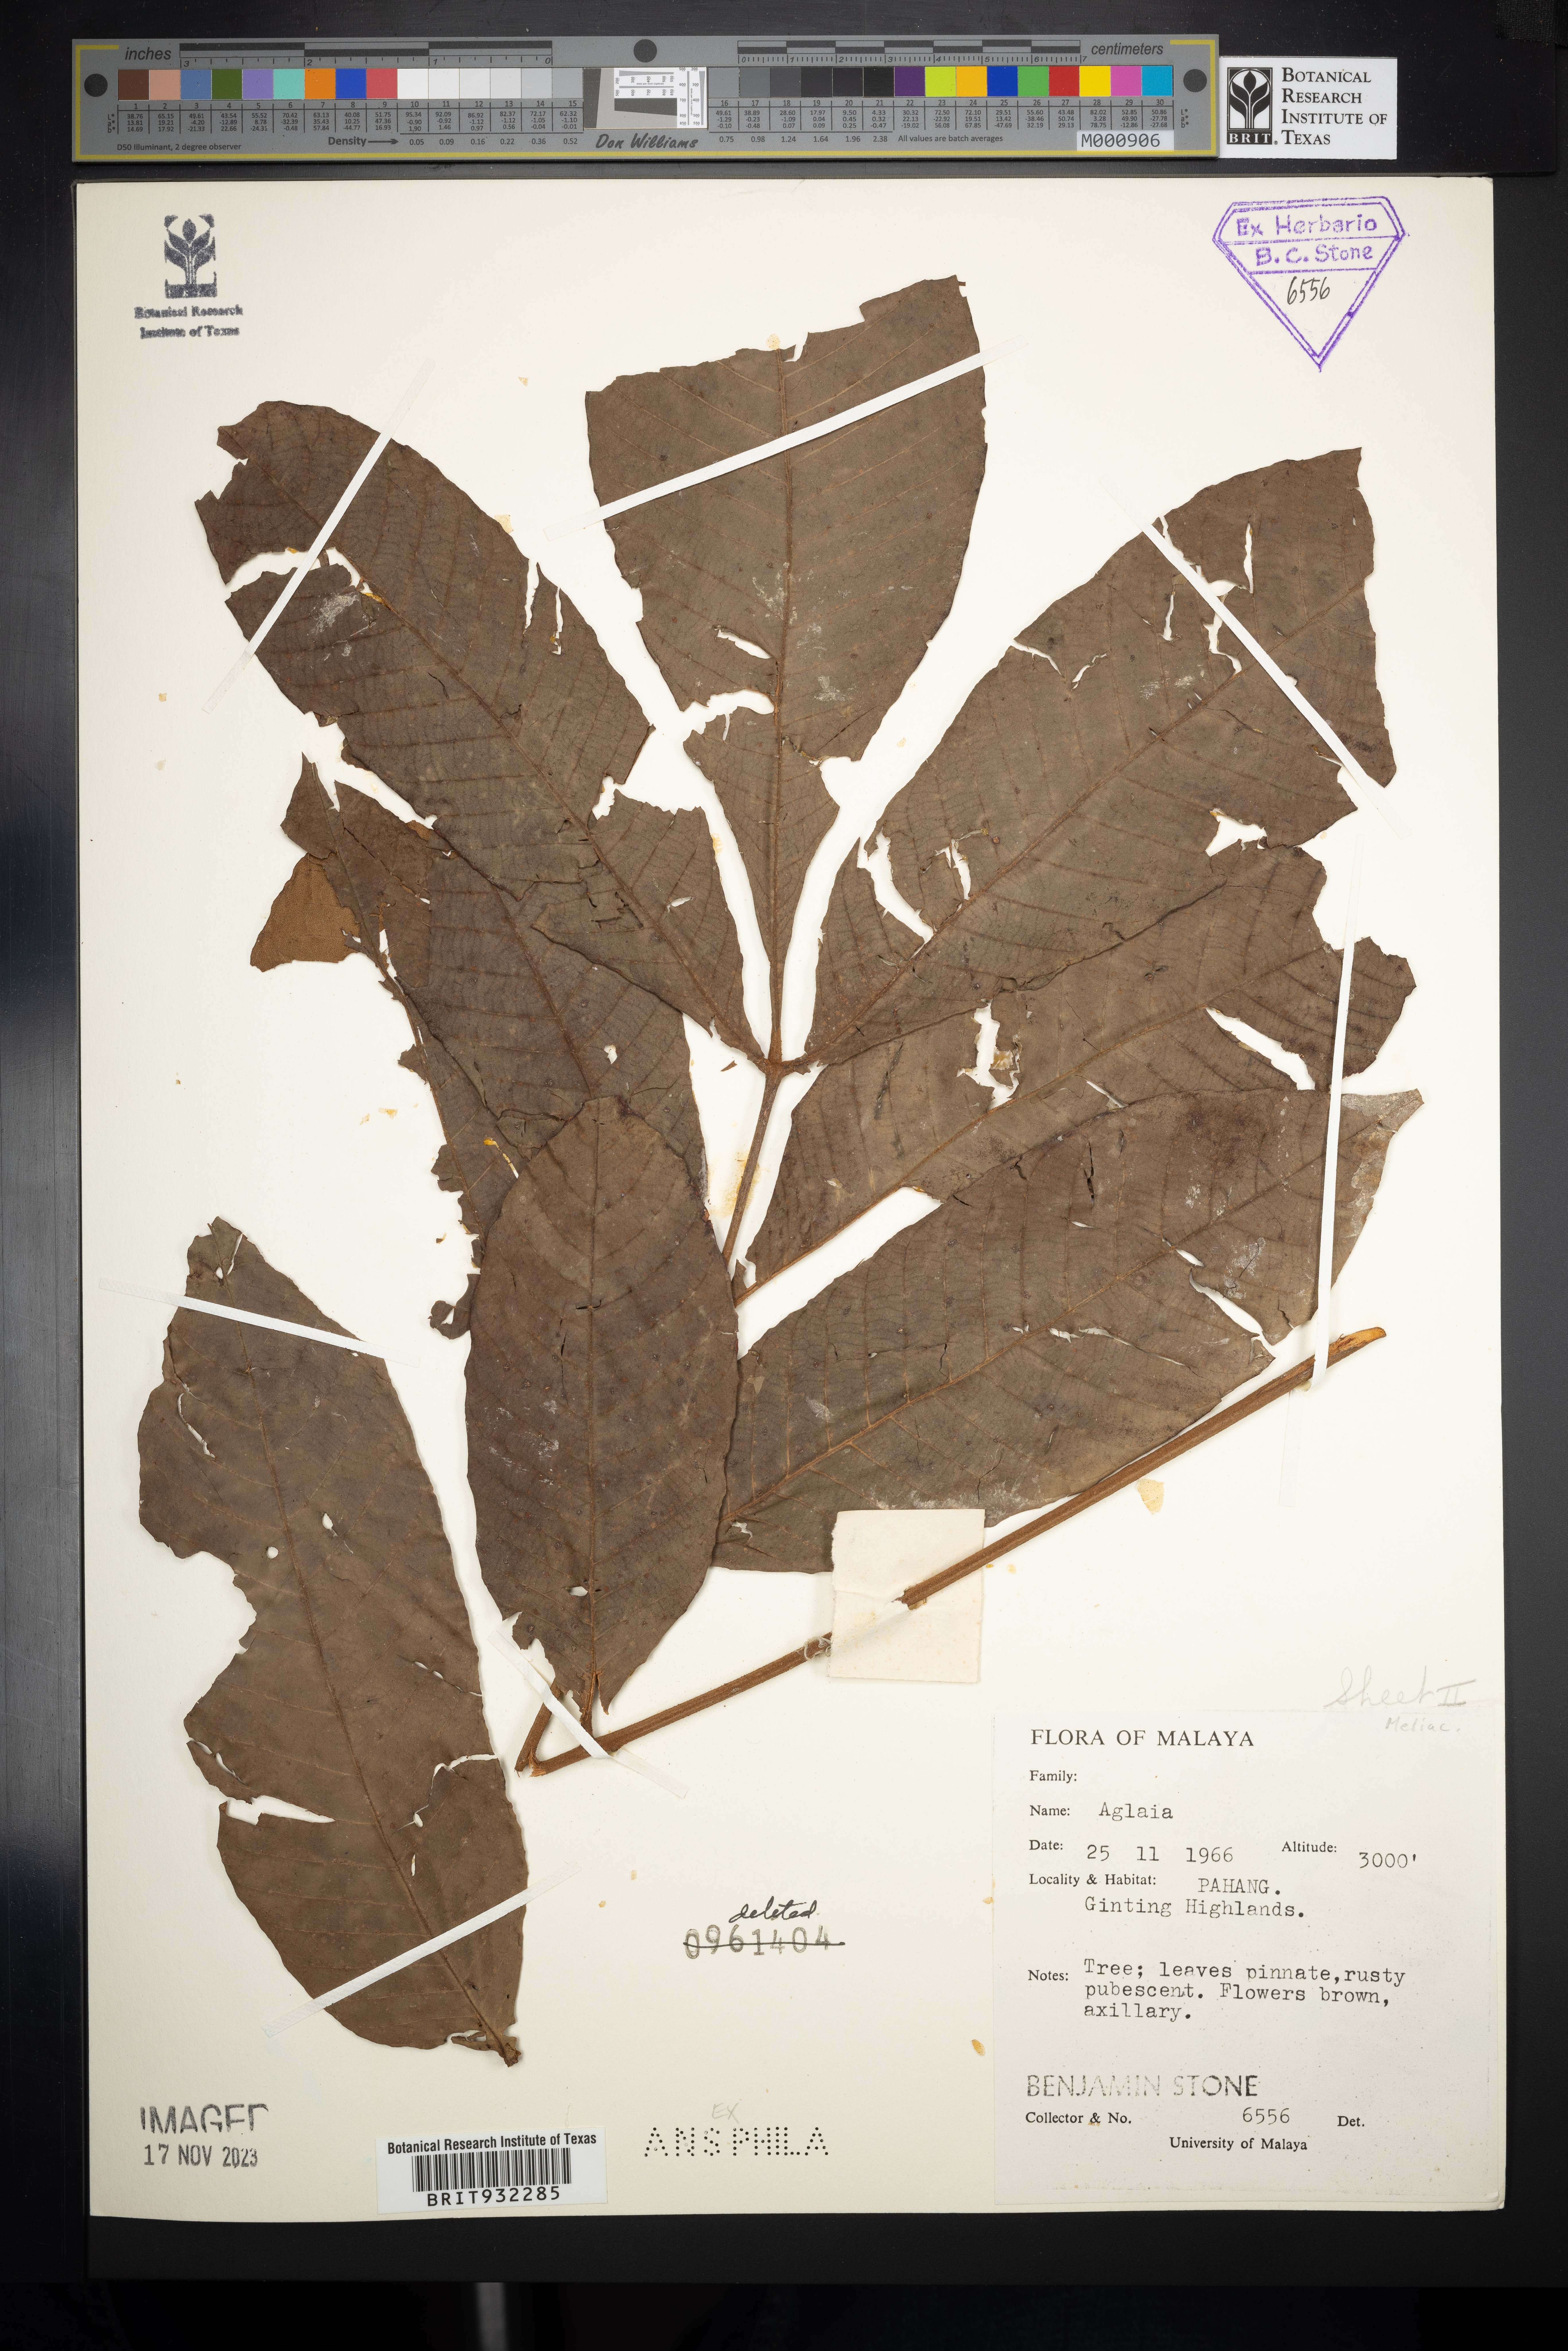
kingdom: Plantae
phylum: Tracheophyta
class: Magnoliopsida
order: Sapindales
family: Meliaceae
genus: Aglaia
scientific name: Aglaia
